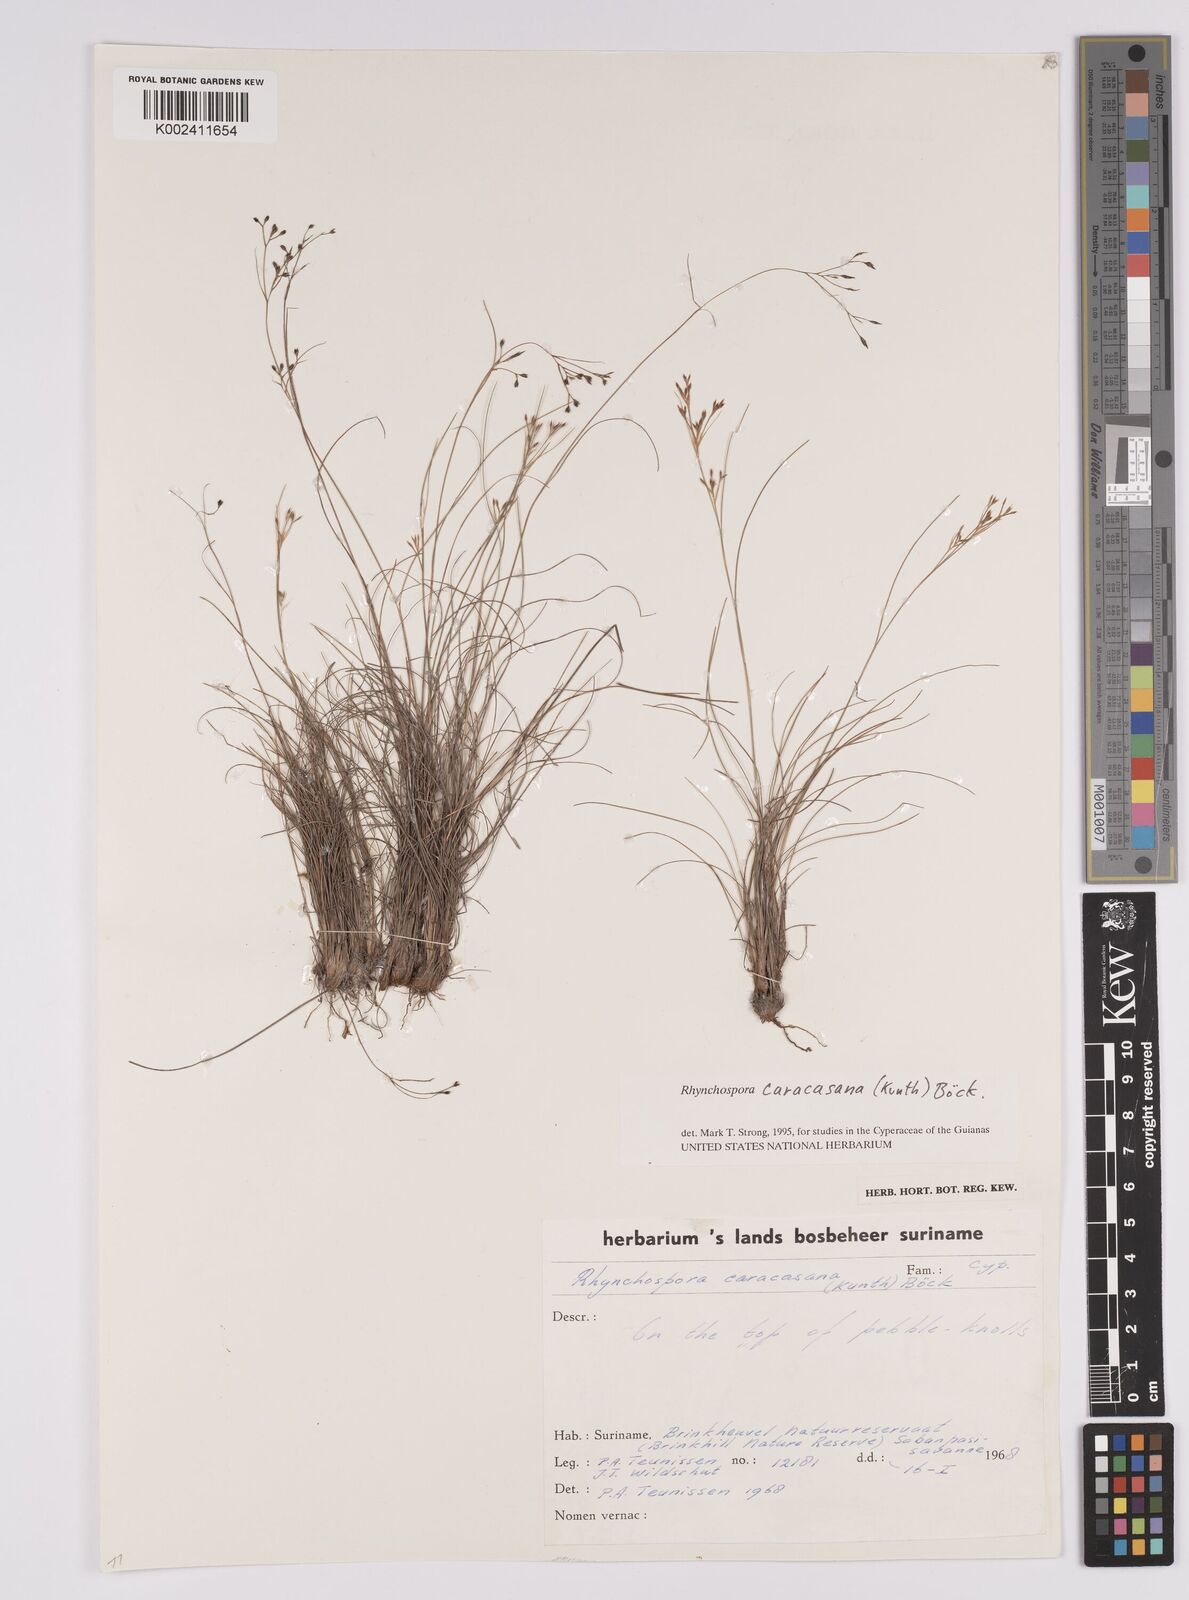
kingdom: Plantae
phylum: Tracheophyta
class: Liliopsida
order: Poales
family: Cyperaceae
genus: Rhynchospora
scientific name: Rhynchospora caracasana
